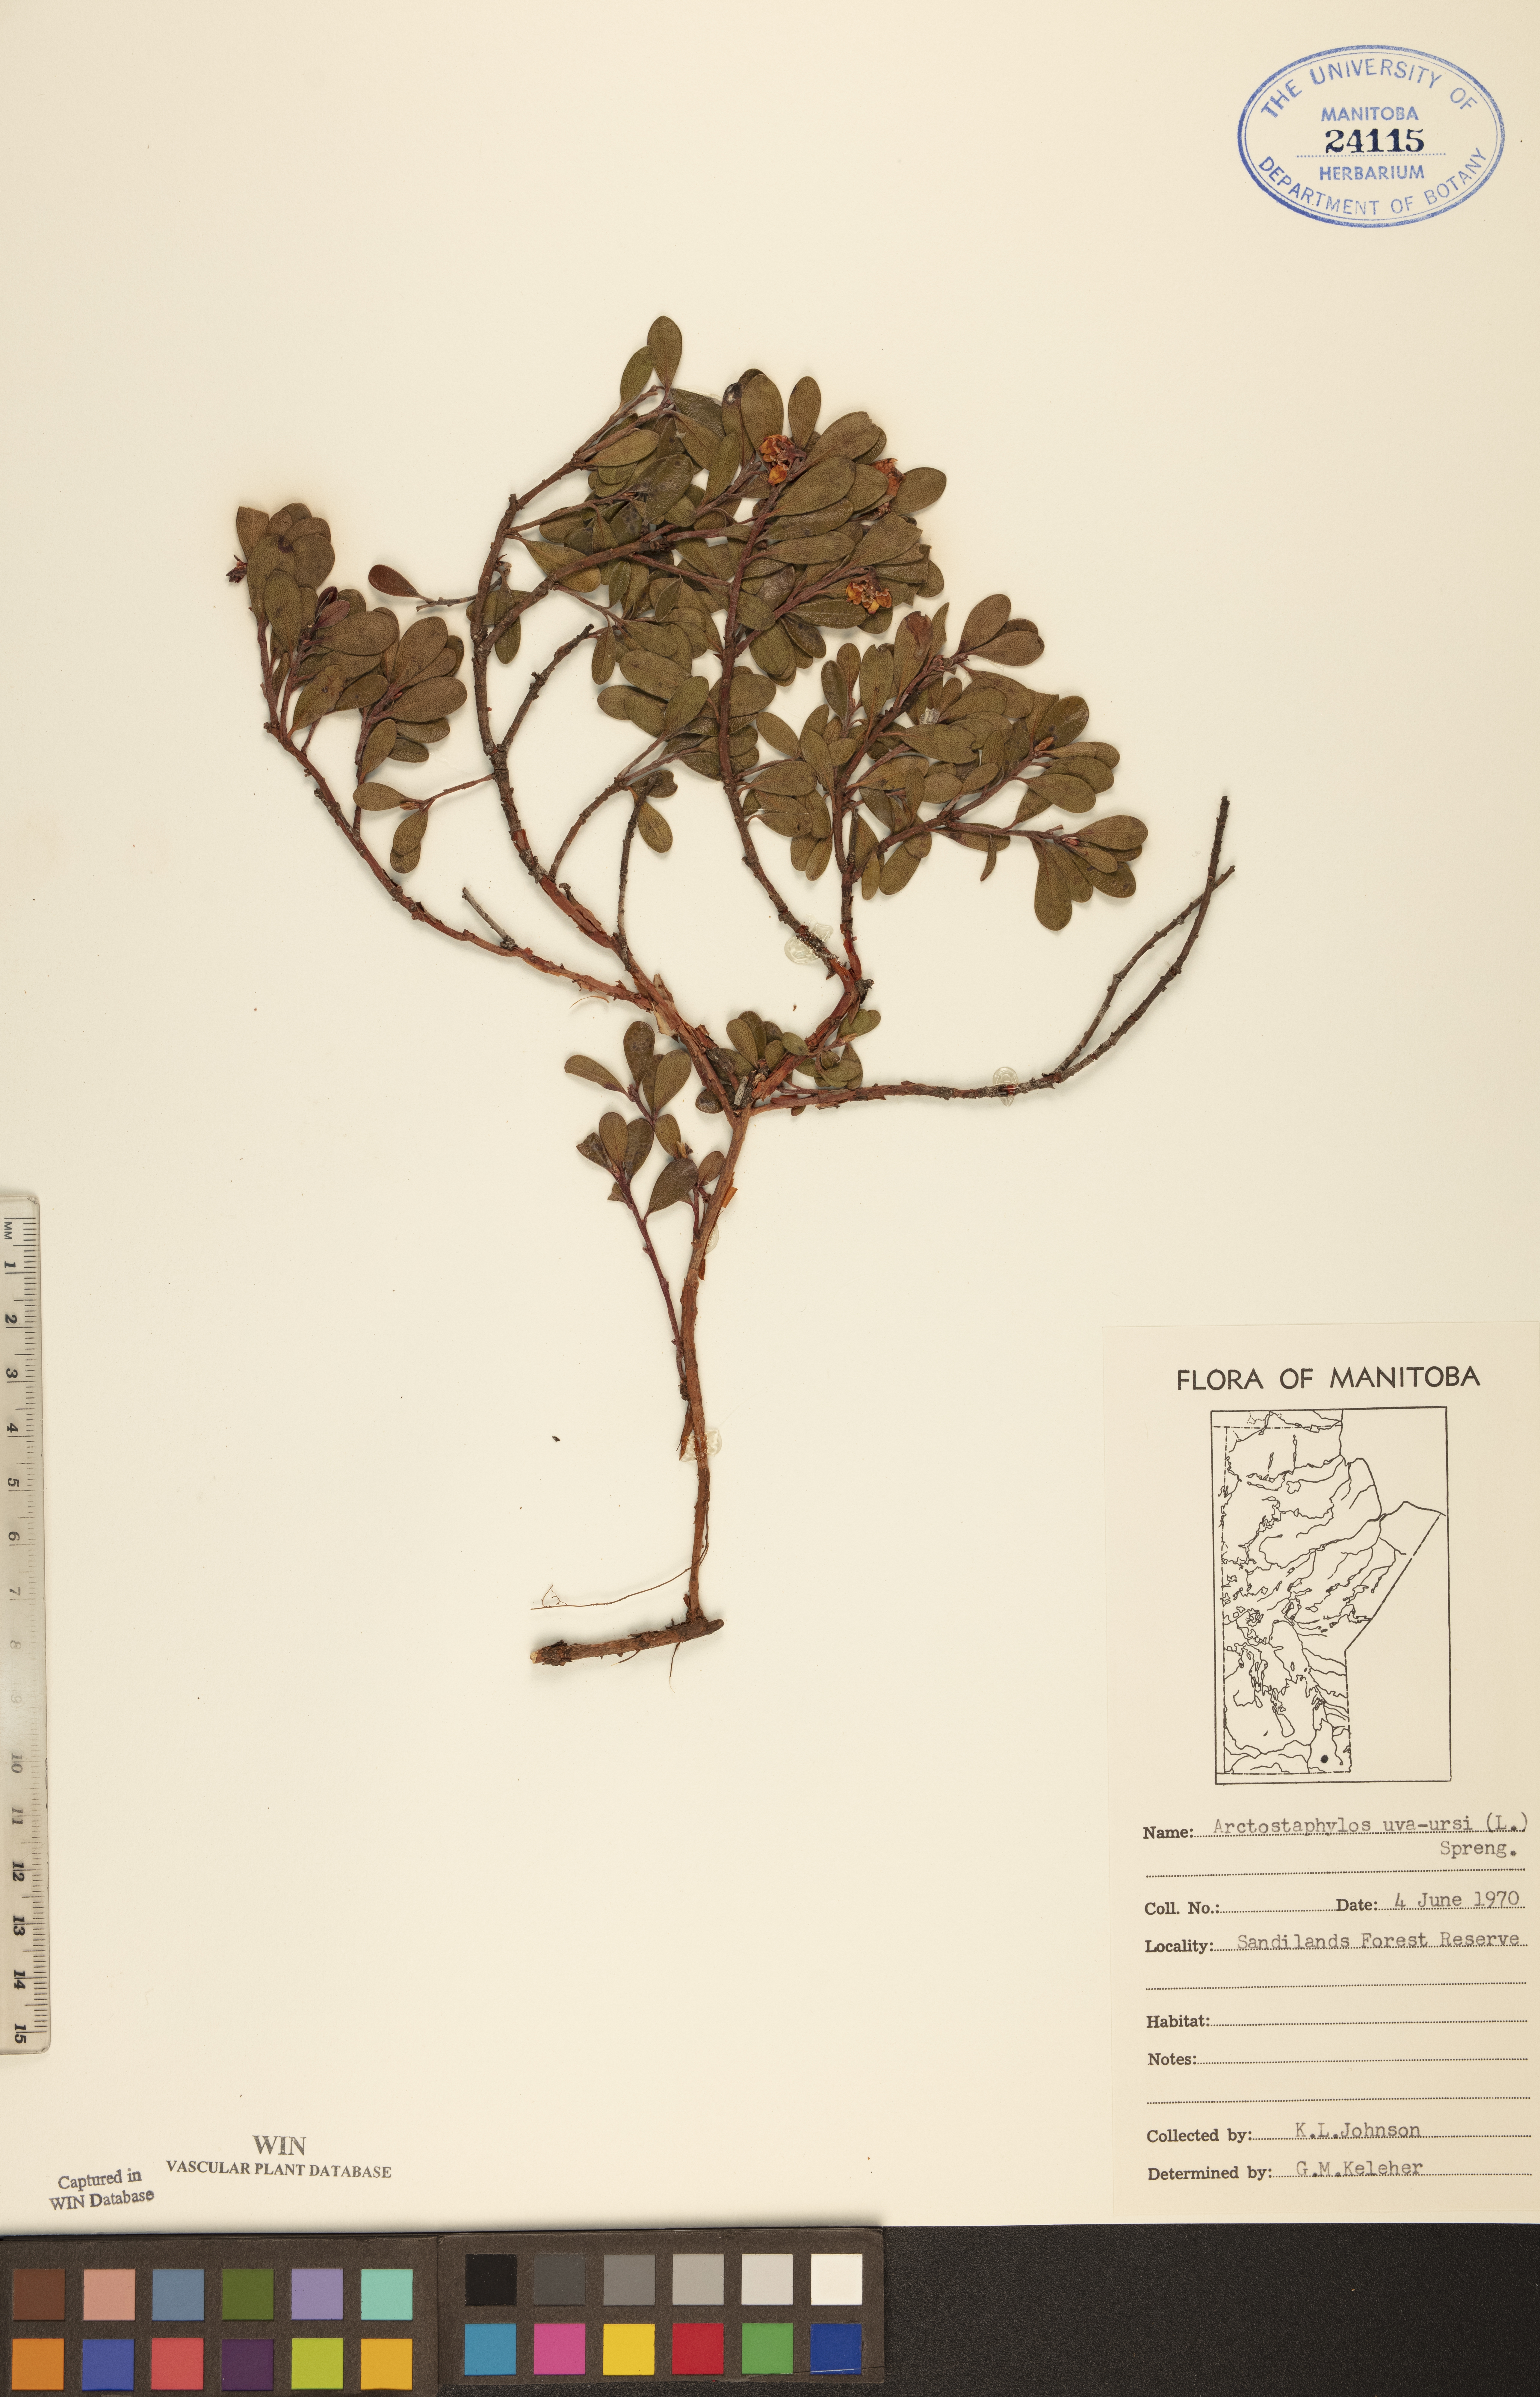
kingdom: Plantae
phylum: Tracheophyta
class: Magnoliopsida
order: Ericales
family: Ericaceae
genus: Arctostaphylos
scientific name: Arctostaphylos uva-ursi
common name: Bearberry
